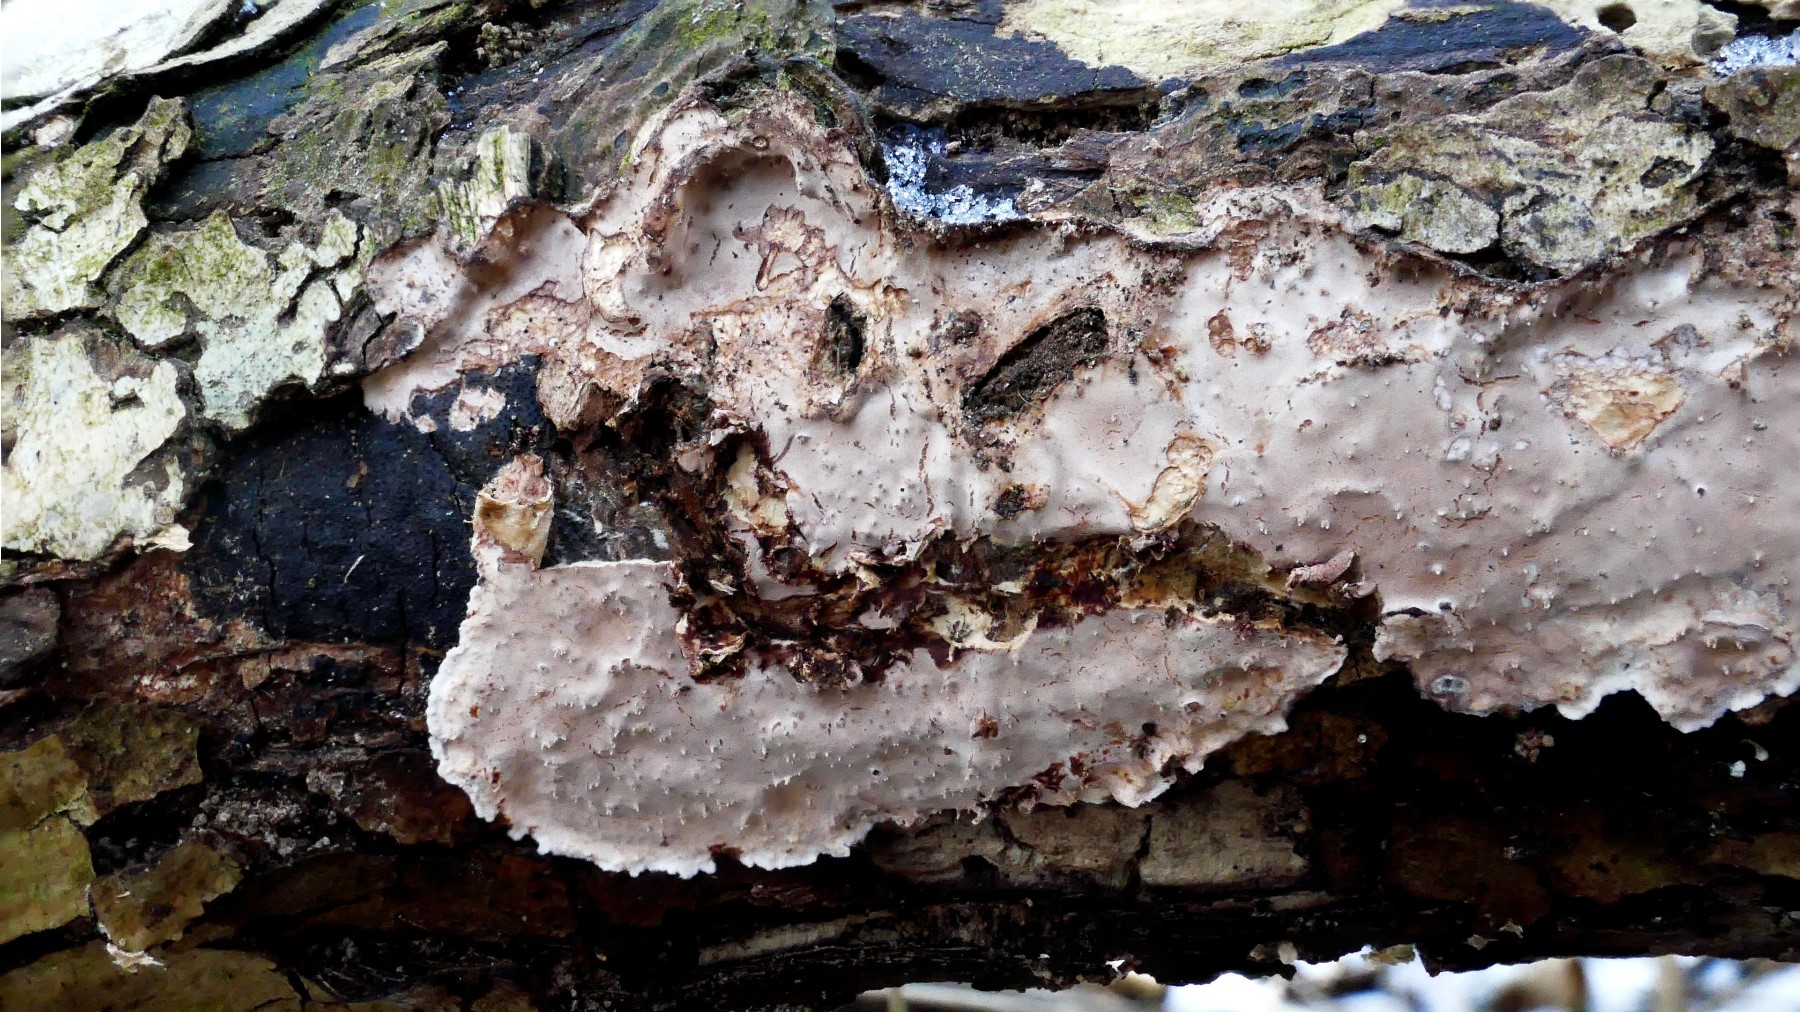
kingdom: Fungi
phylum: Basidiomycota
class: Agaricomycetes
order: Auriculariales
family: Auriculariaceae
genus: Heteroradulum
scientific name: Heteroradulum deglubens
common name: bævreskorpe
